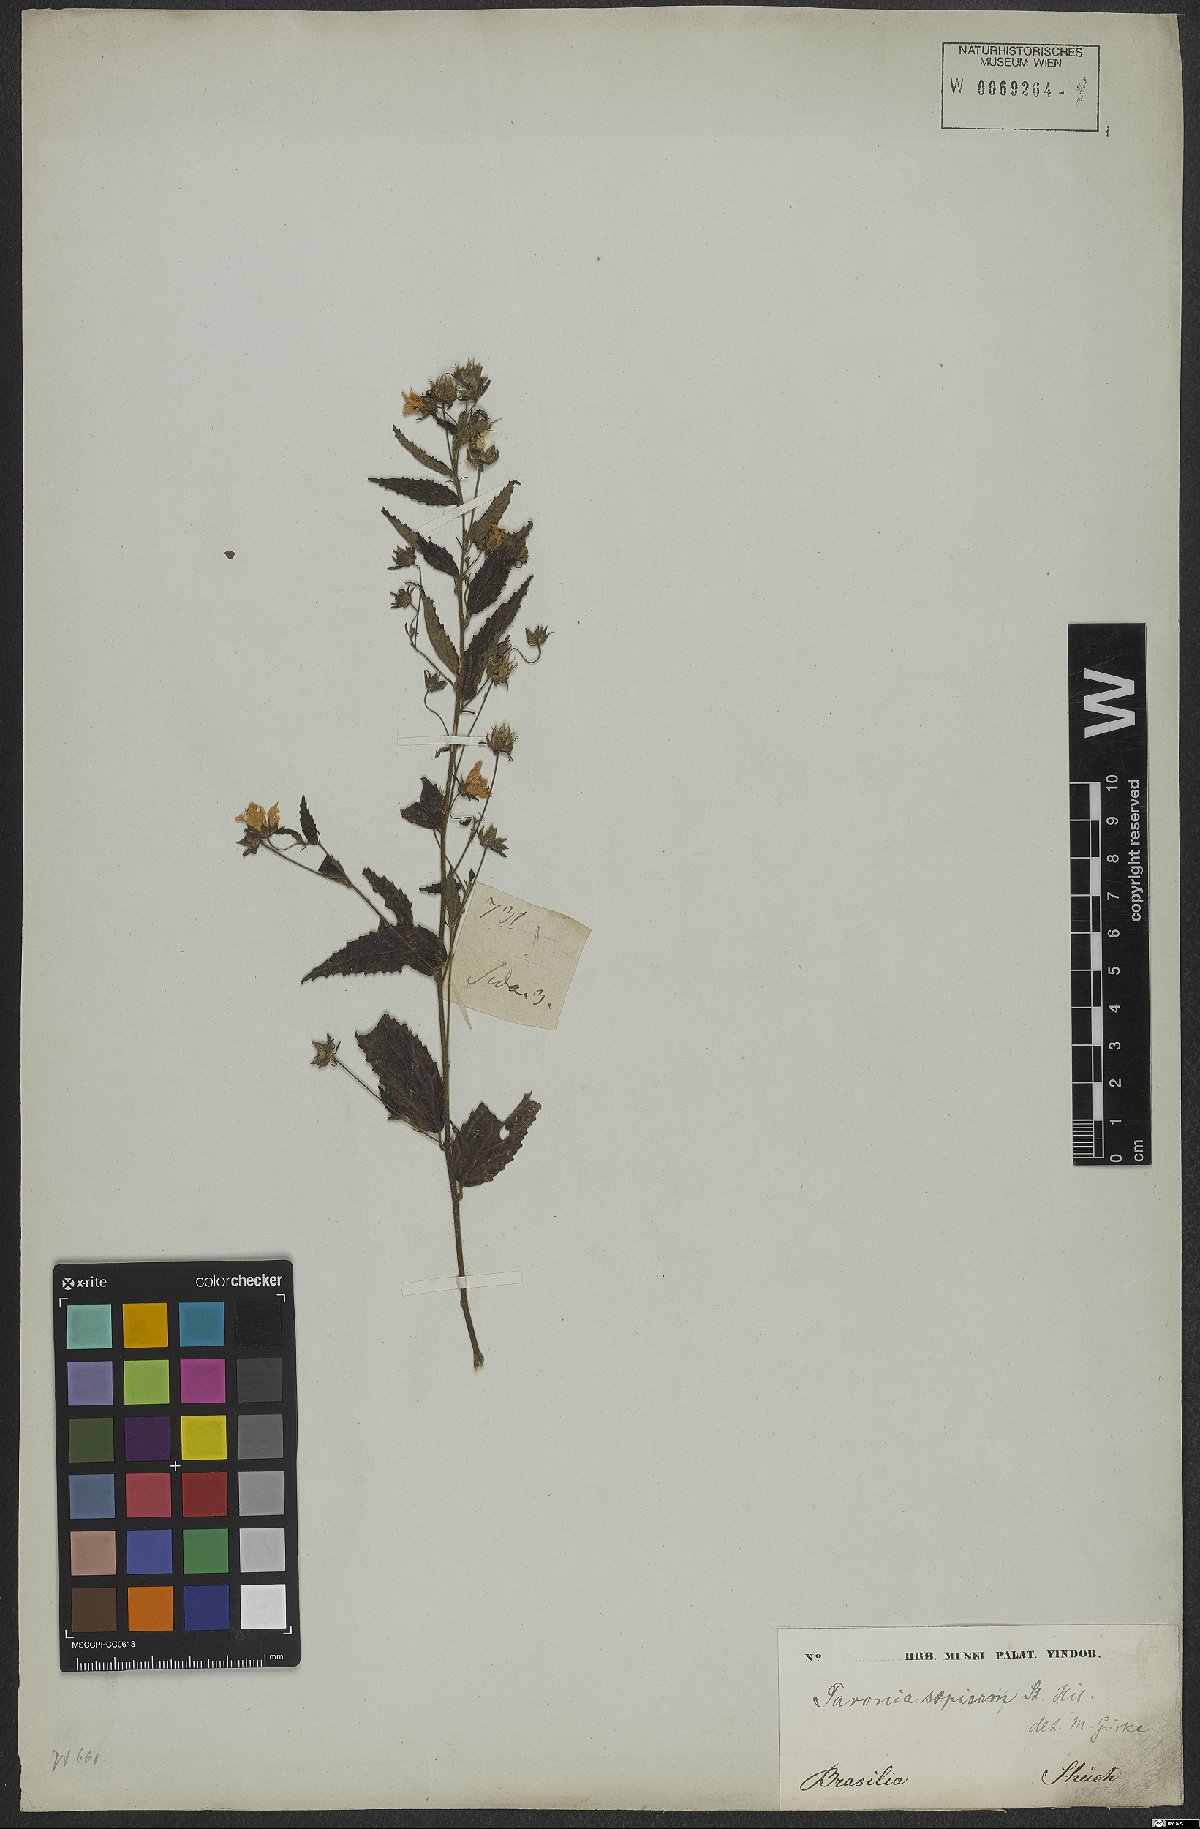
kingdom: Plantae
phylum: Tracheophyta
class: Magnoliopsida
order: Malvales
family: Malvaceae
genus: Pavonia
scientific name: Pavonia sepium
